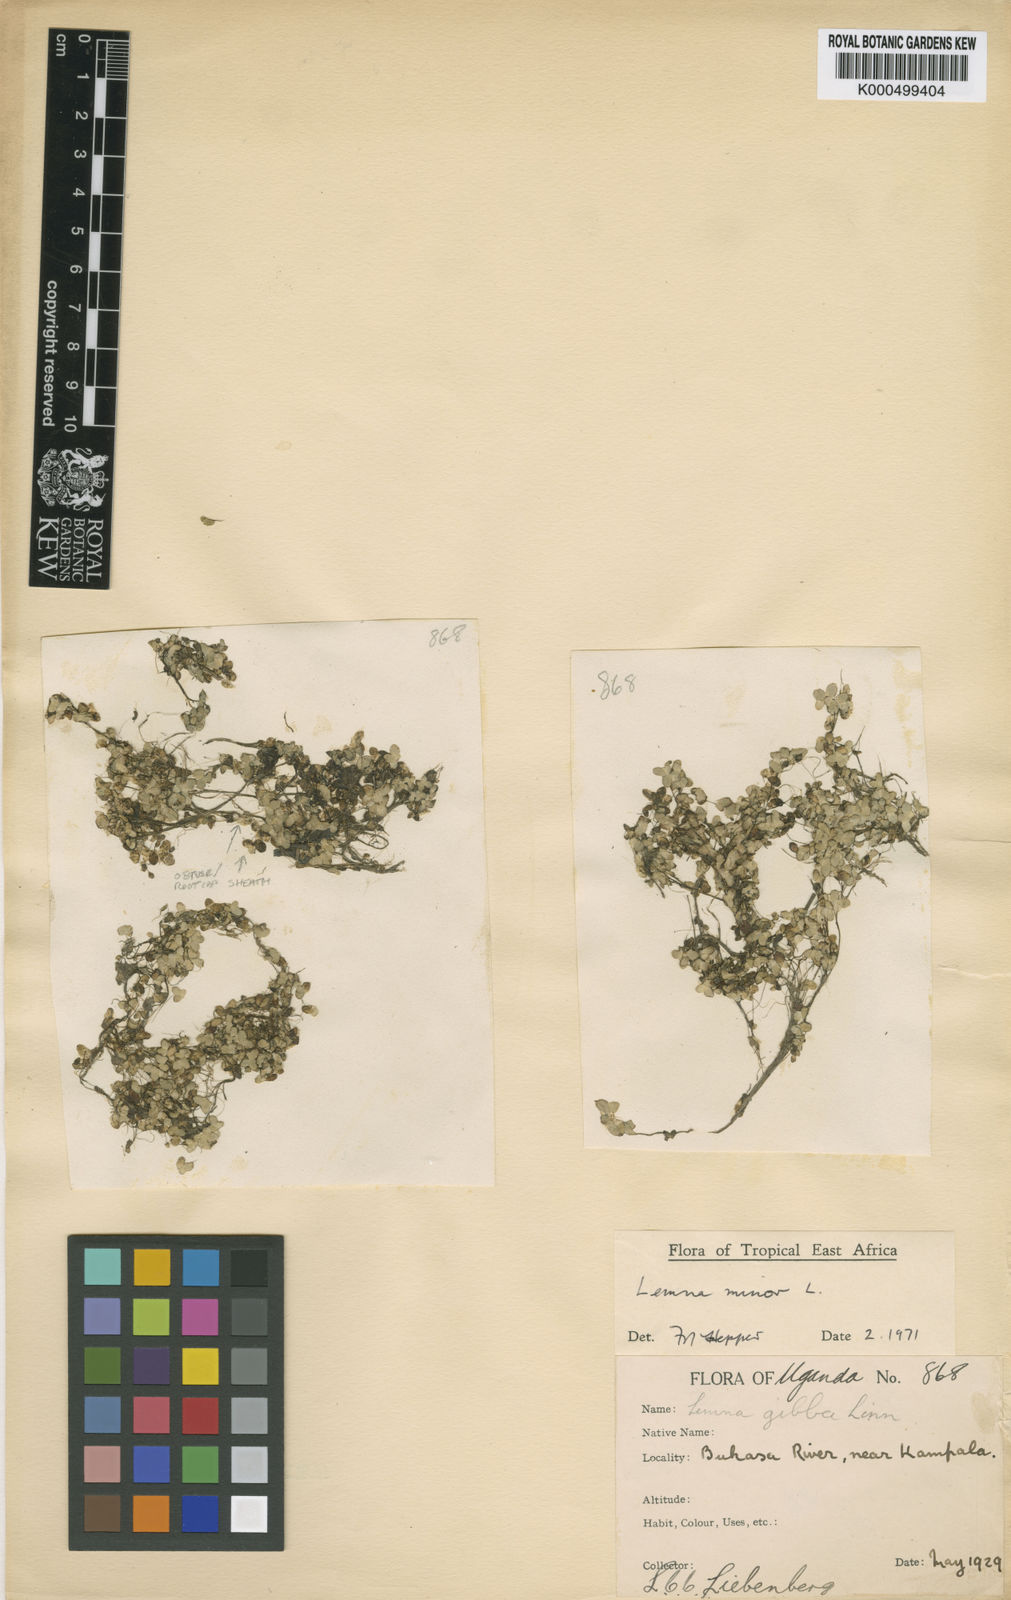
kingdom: Plantae
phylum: Tracheophyta
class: Liliopsida
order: Alismatales
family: Araceae
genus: Lemna
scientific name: Lemna minor
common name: Common duckweed
